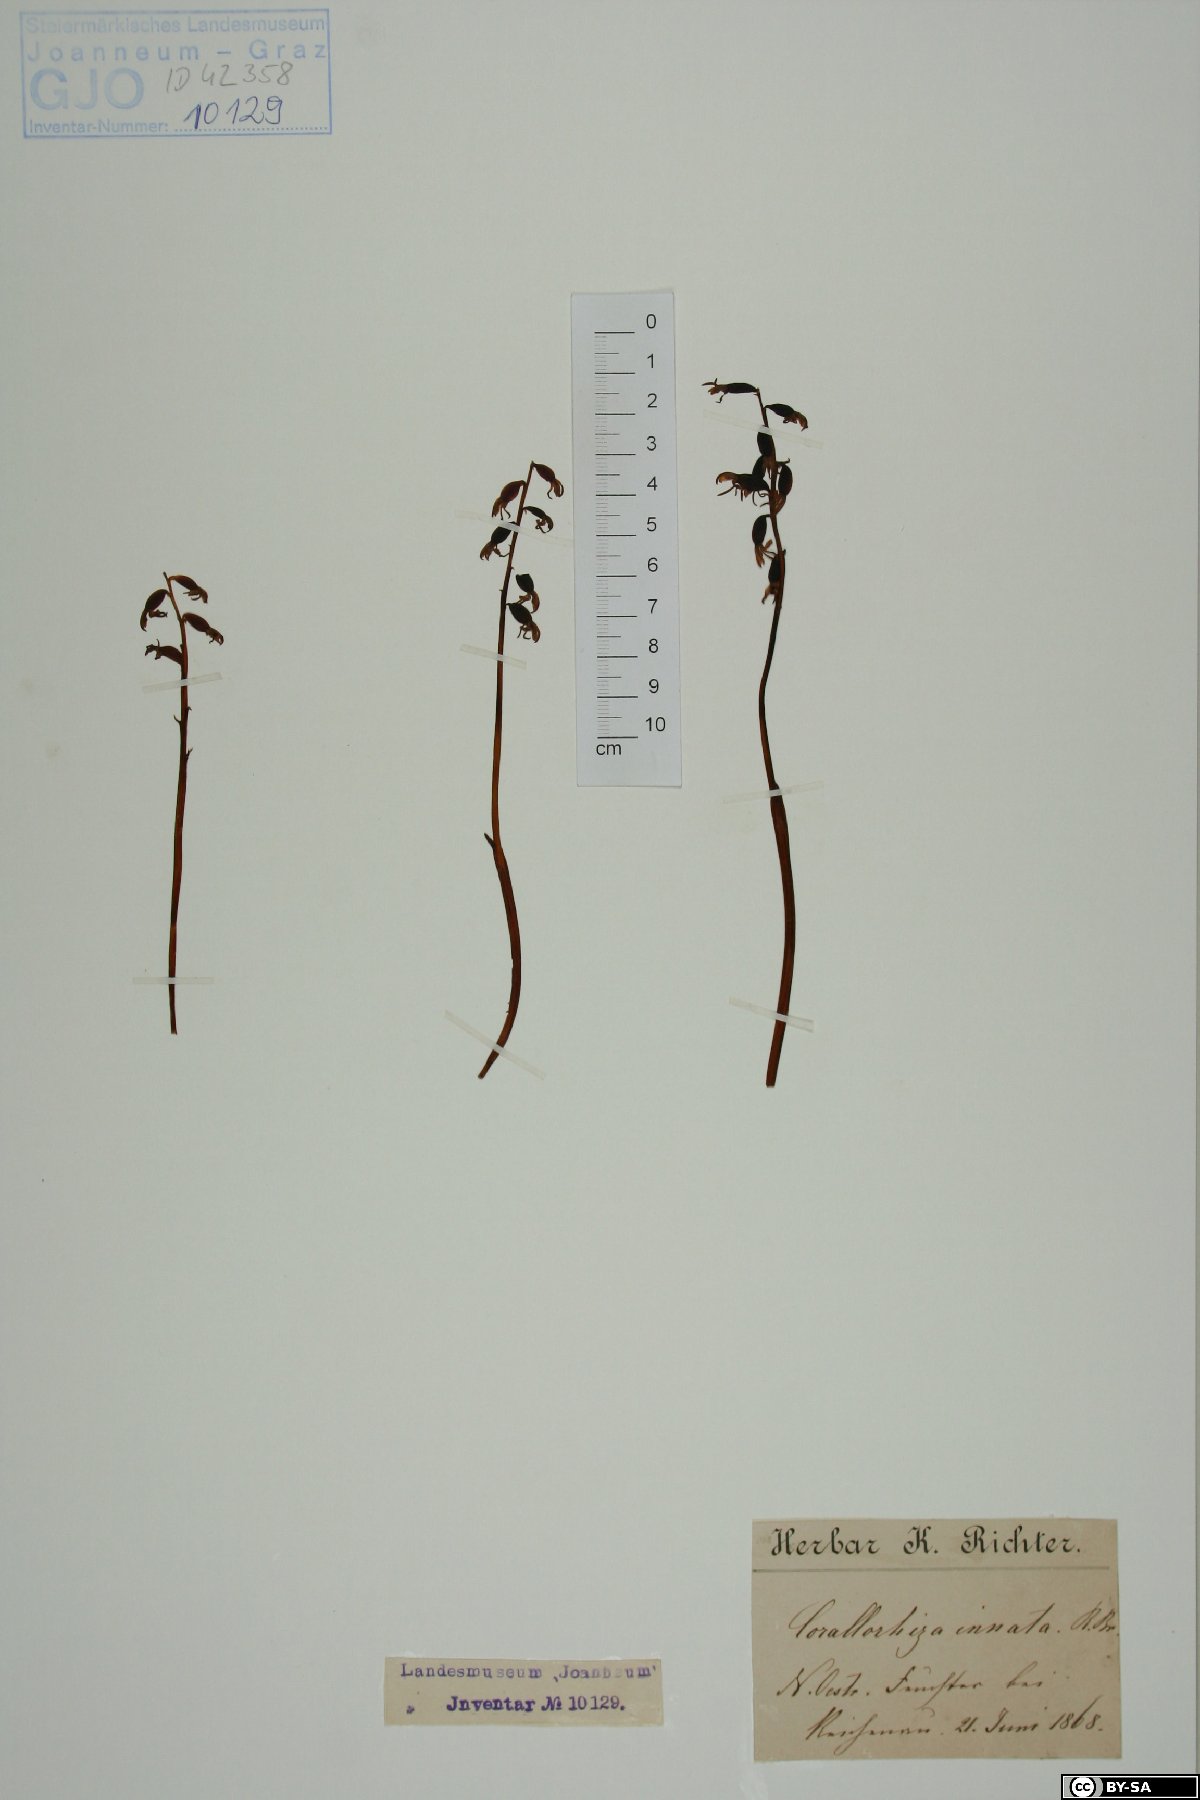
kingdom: Plantae
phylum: Tracheophyta
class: Liliopsida
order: Asparagales
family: Orchidaceae
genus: Corallorhiza
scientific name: Corallorhiza trifida
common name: Yellow coralroot
